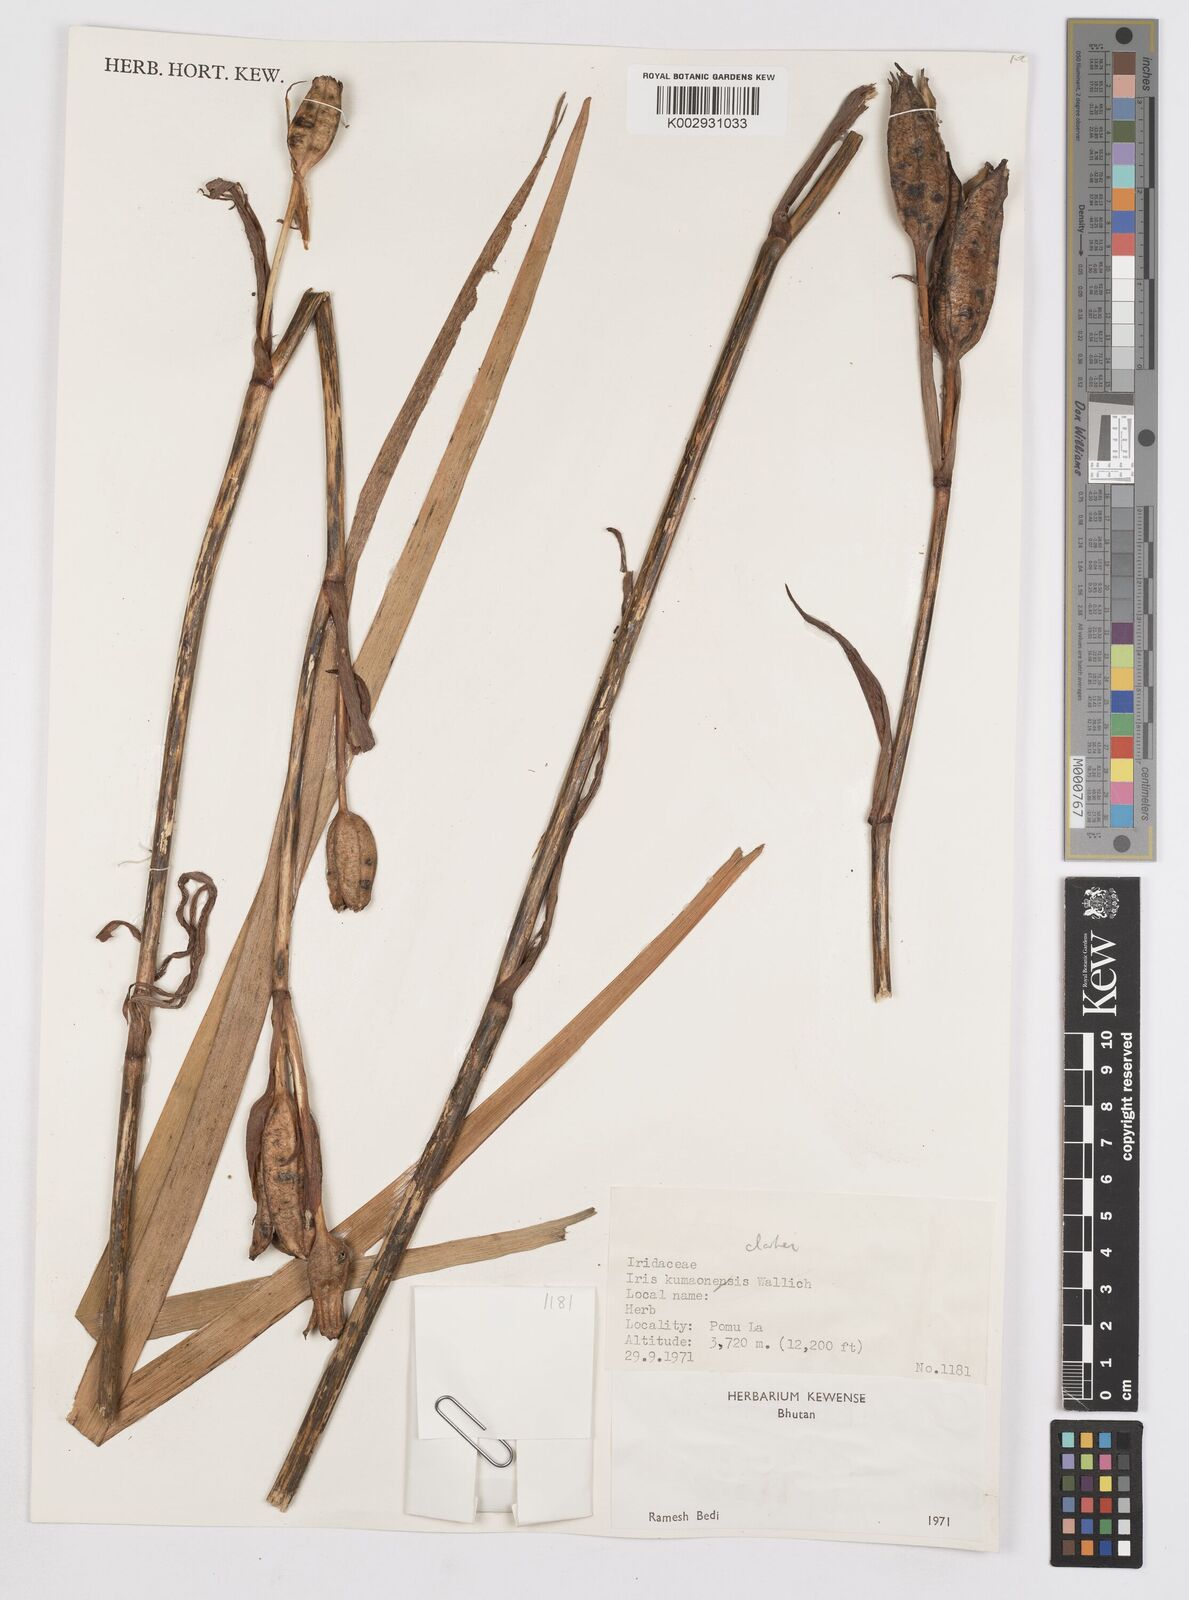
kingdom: Plantae
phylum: Tracheophyta
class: Liliopsida
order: Asparagales
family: Iridaceae
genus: Iris
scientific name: Iris clarkei
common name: Tibet iris
